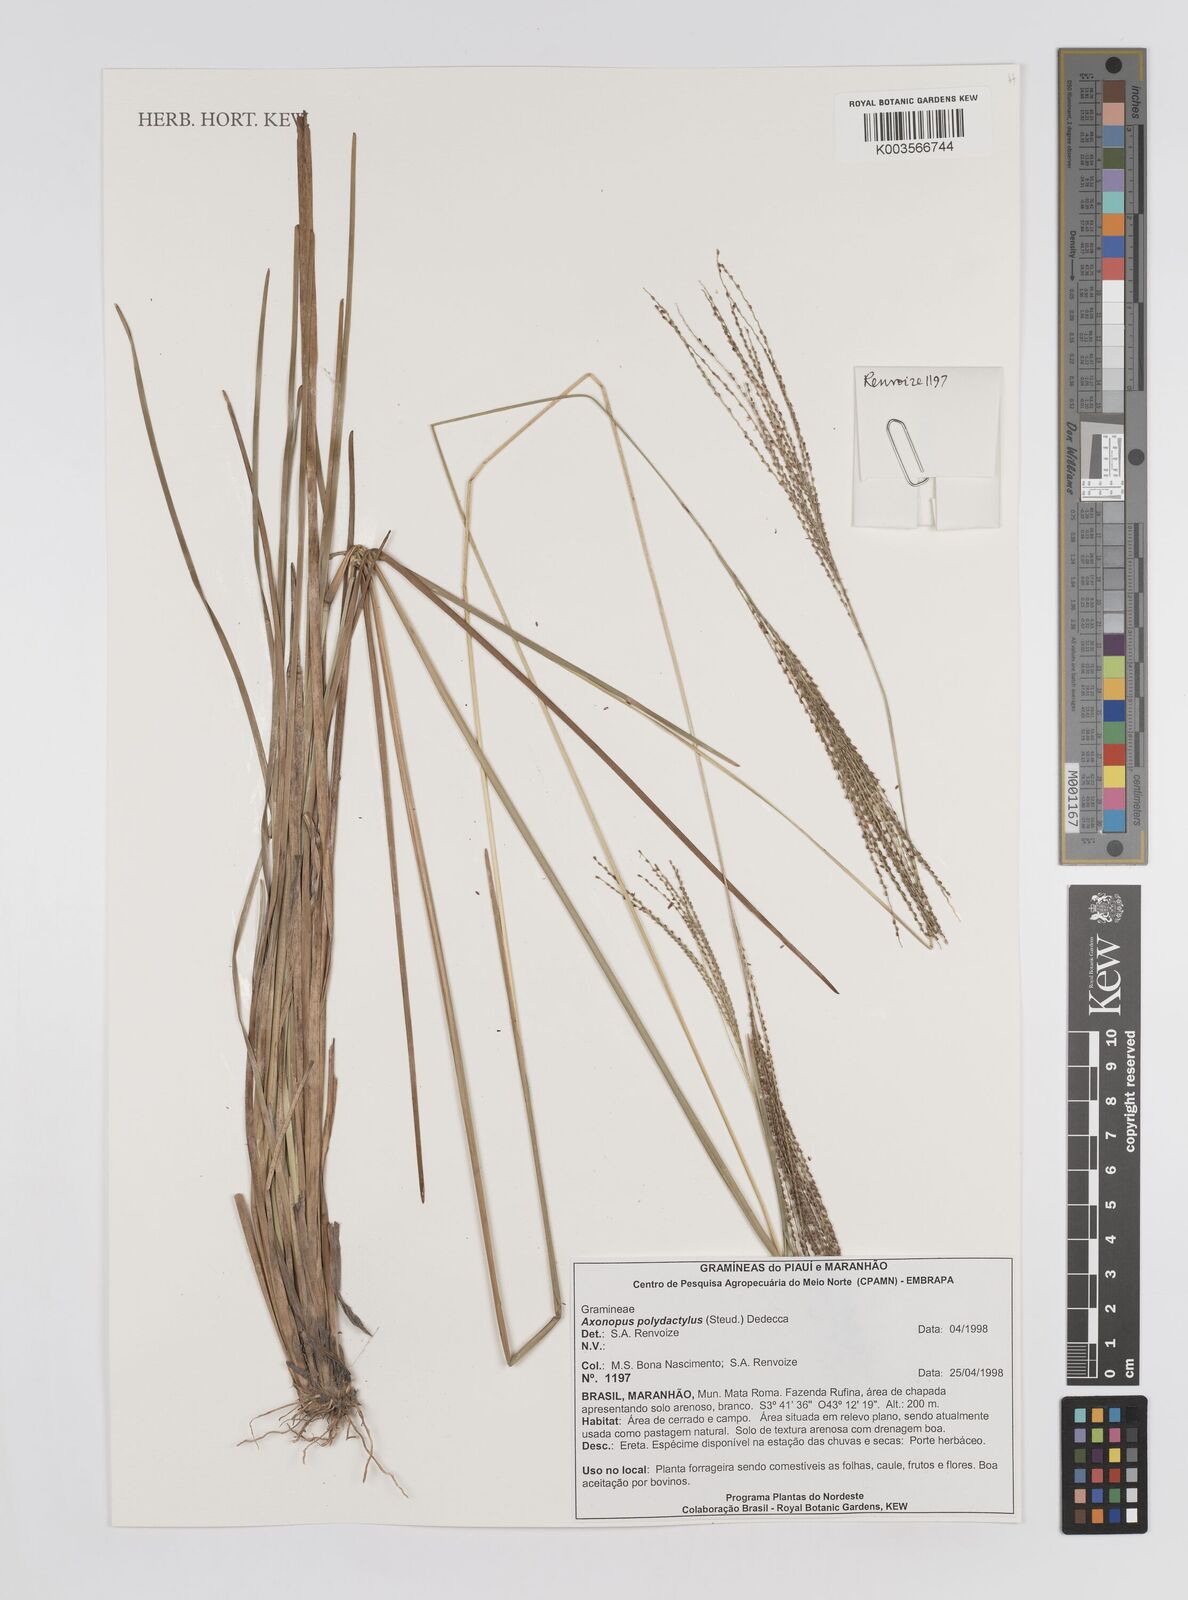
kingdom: Plantae
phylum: Tracheophyta
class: Liliopsida
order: Poales
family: Poaceae
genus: Axonopus
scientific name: Axonopus polydactylus
